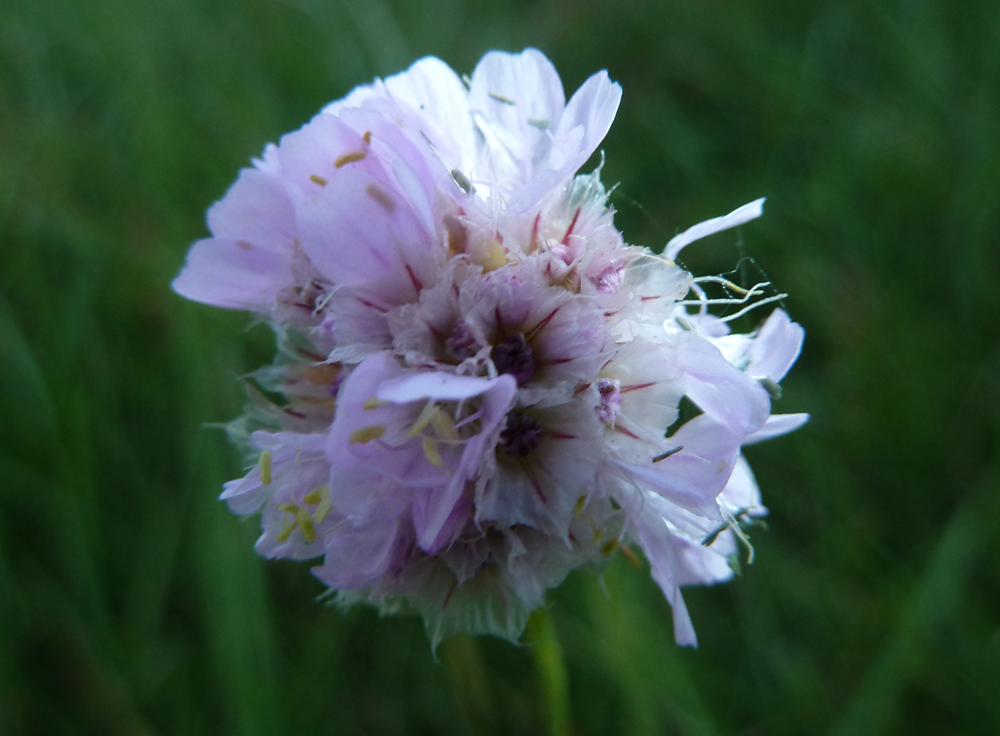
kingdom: Plantae
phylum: Tracheophyta
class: Magnoliopsida
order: Caryophyllales
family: Plumbaginaceae
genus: Armeria
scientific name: Armeria maritima
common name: Thrift
